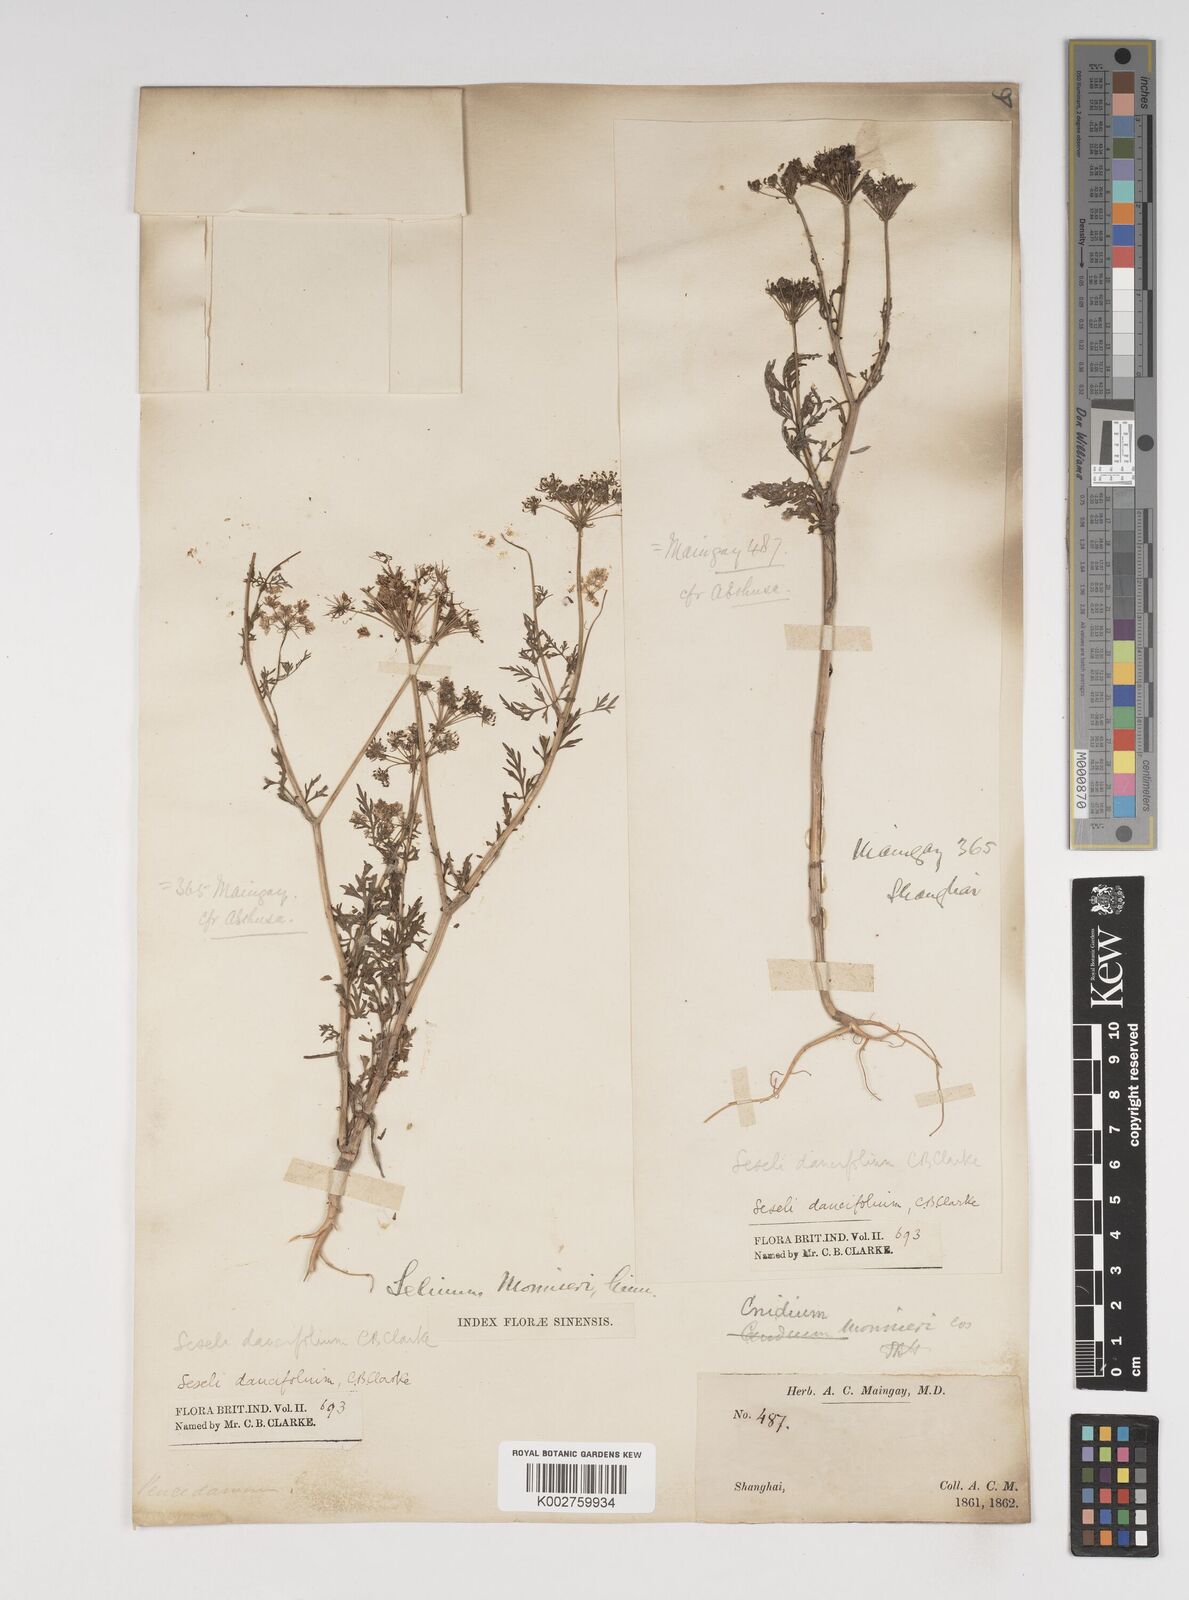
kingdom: Plantae
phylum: Tracheophyta
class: Magnoliopsida
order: Apiales
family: Apiaceae
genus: Cnidium
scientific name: Cnidium monnieri
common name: Monnier's snowparsley
